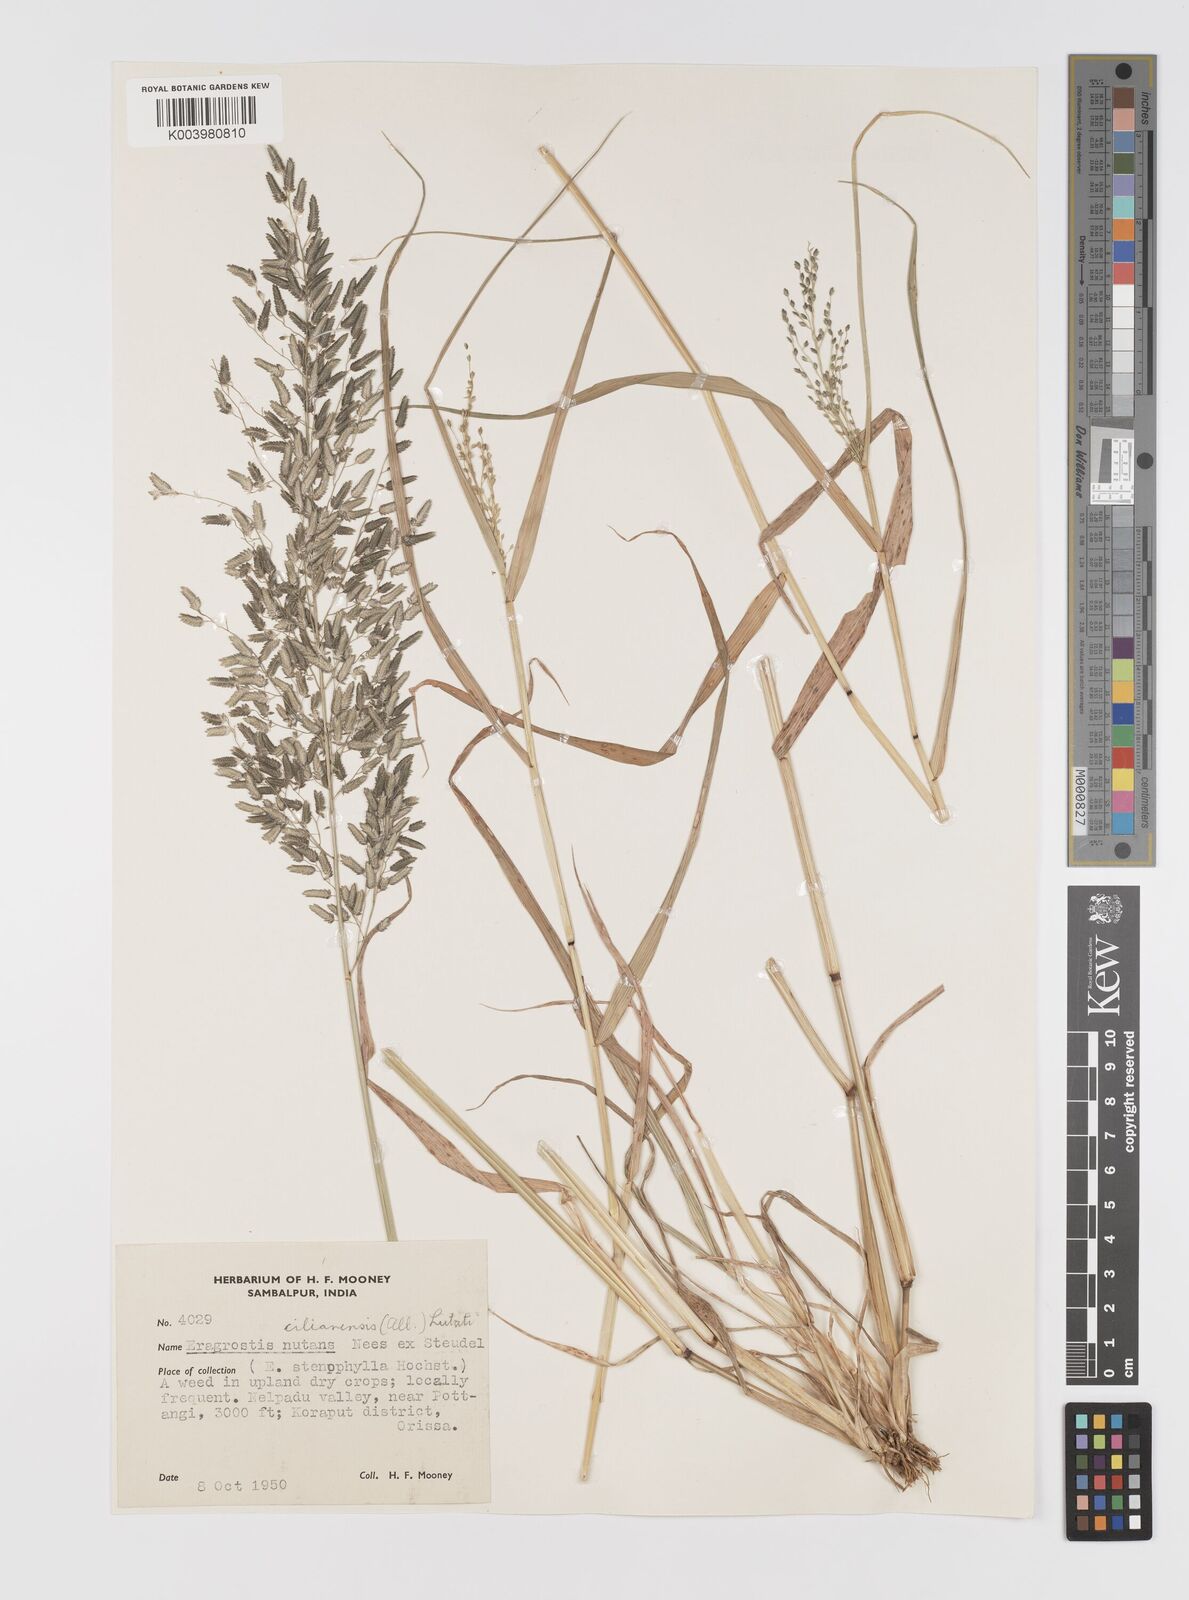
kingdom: Plantae
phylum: Tracheophyta
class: Liliopsida
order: Poales
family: Poaceae
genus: Eragrostis
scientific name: Eragrostis cilianensis
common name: Stinkgrass
